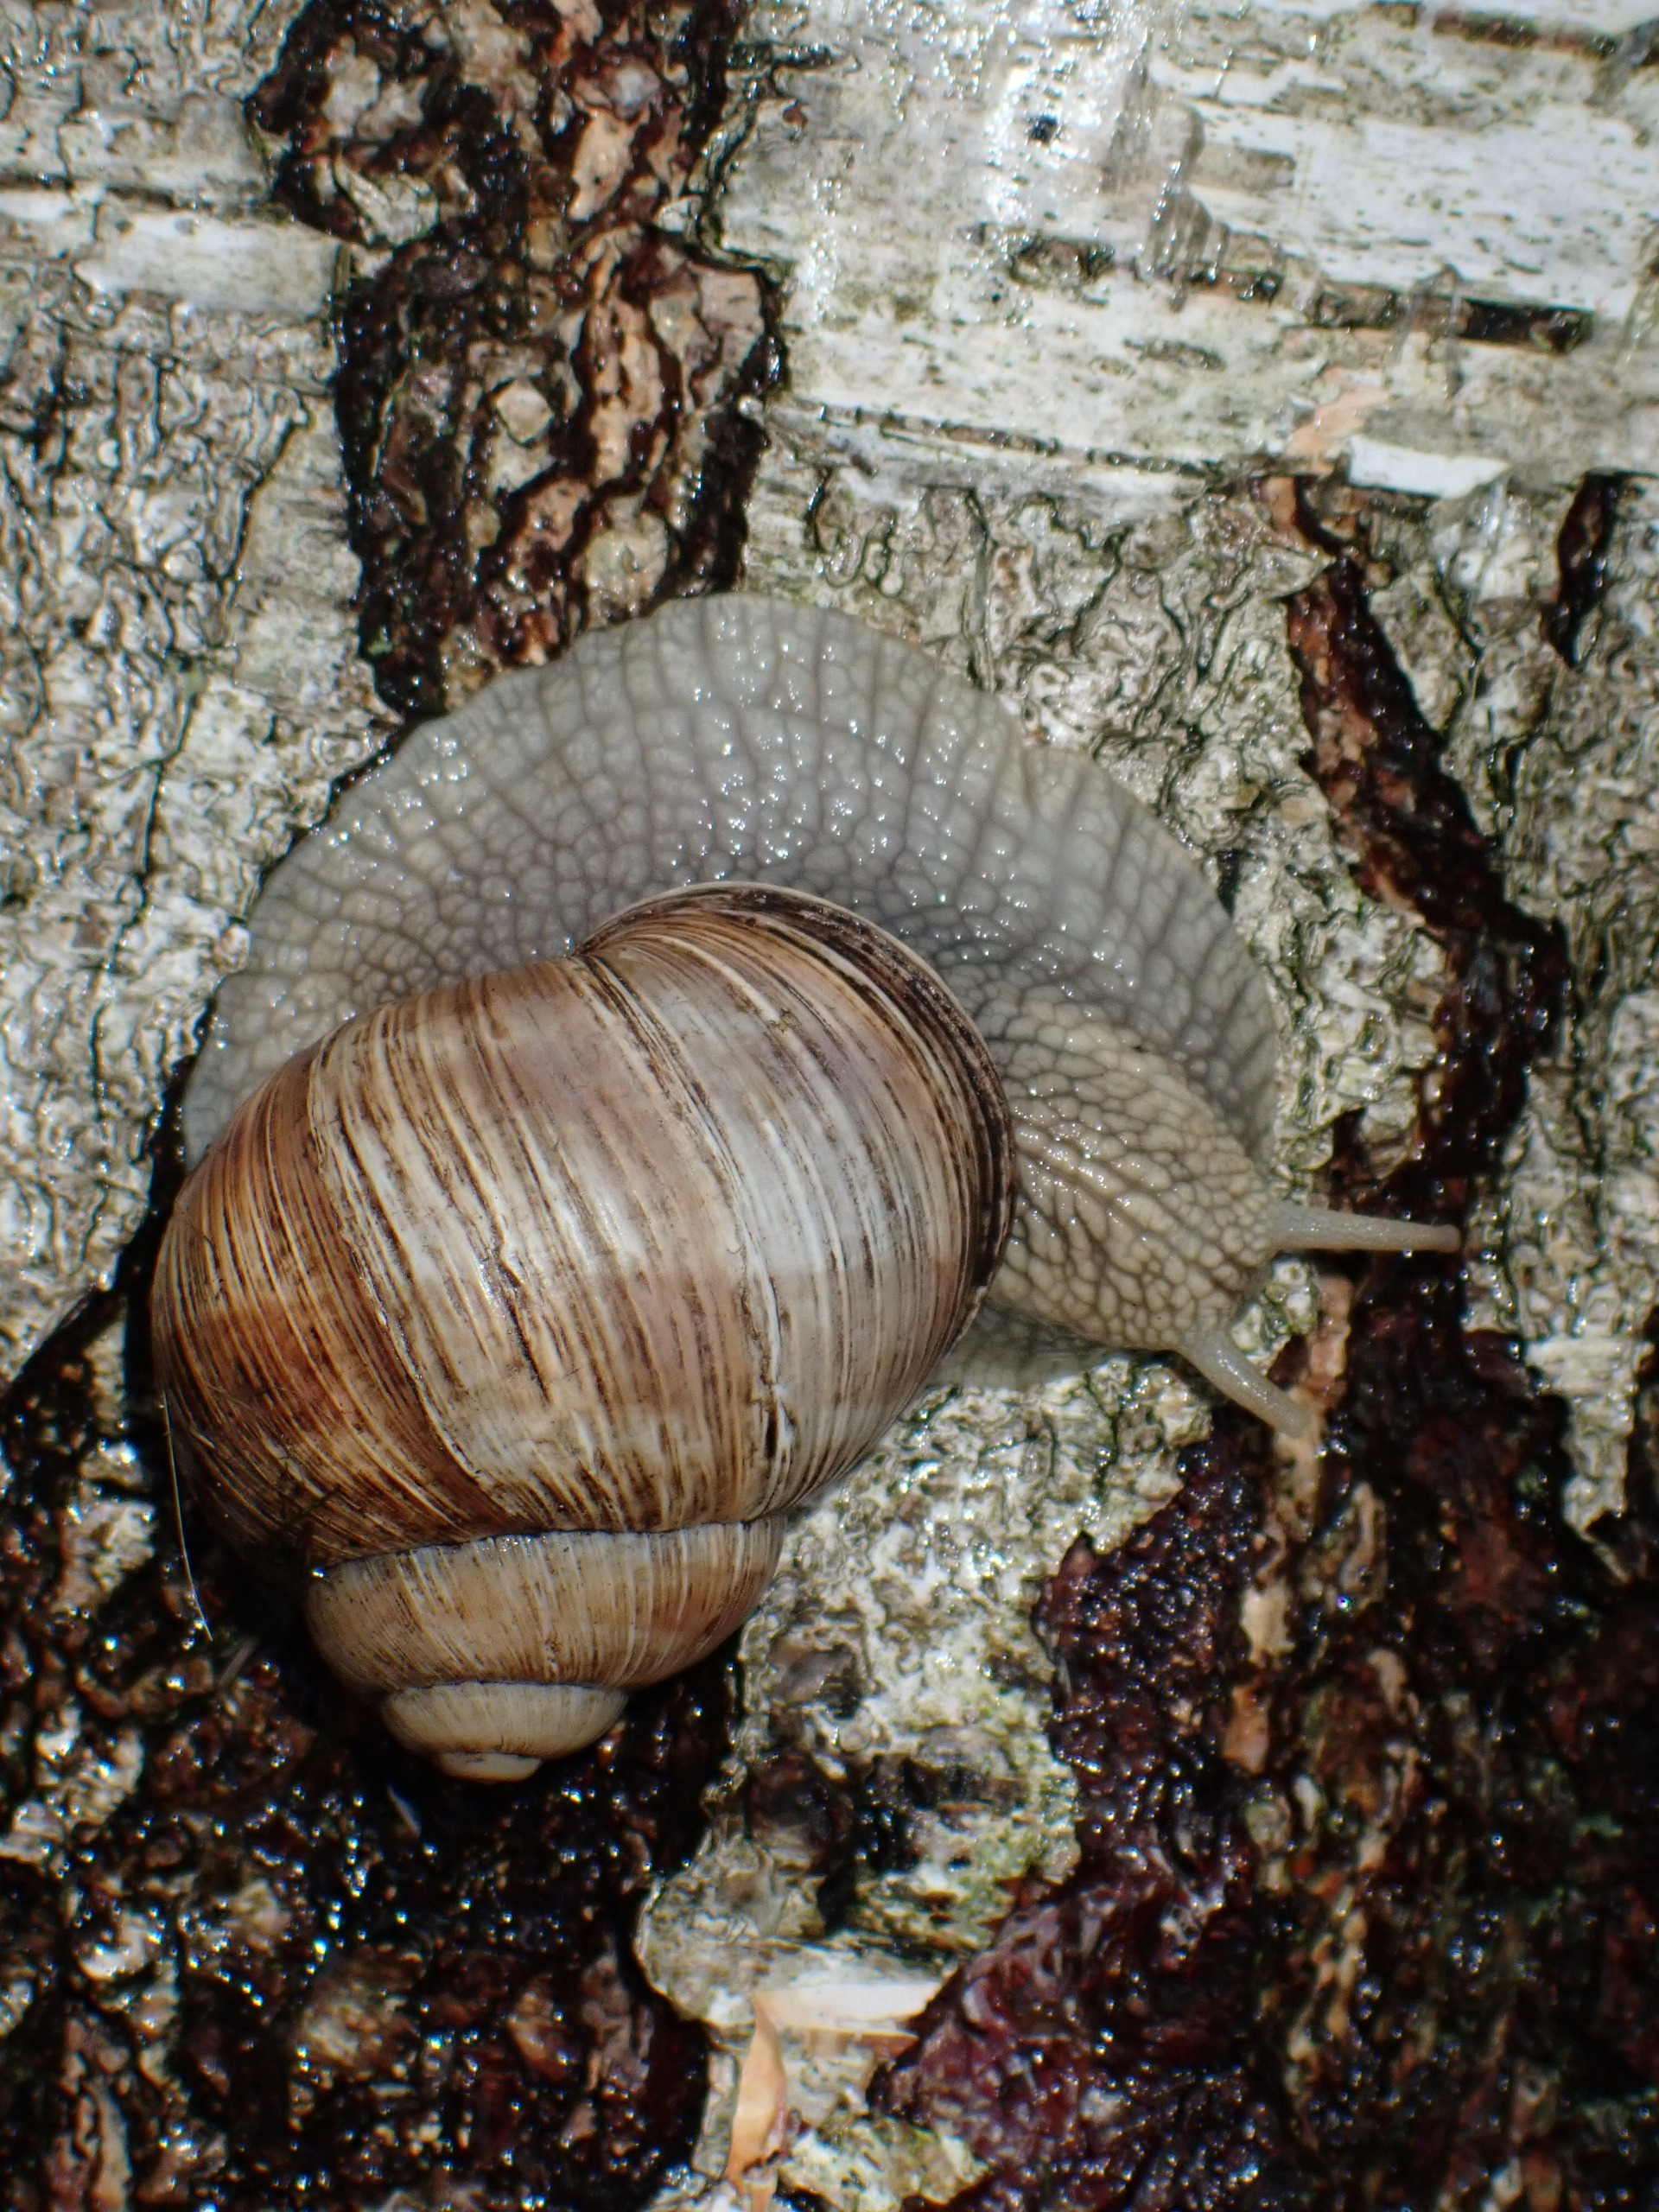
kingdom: Animalia
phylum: Mollusca
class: Gastropoda
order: Stylommatophora
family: Helicidae
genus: Helix
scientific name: Helix pomatia
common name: Vinbjergsnegl
